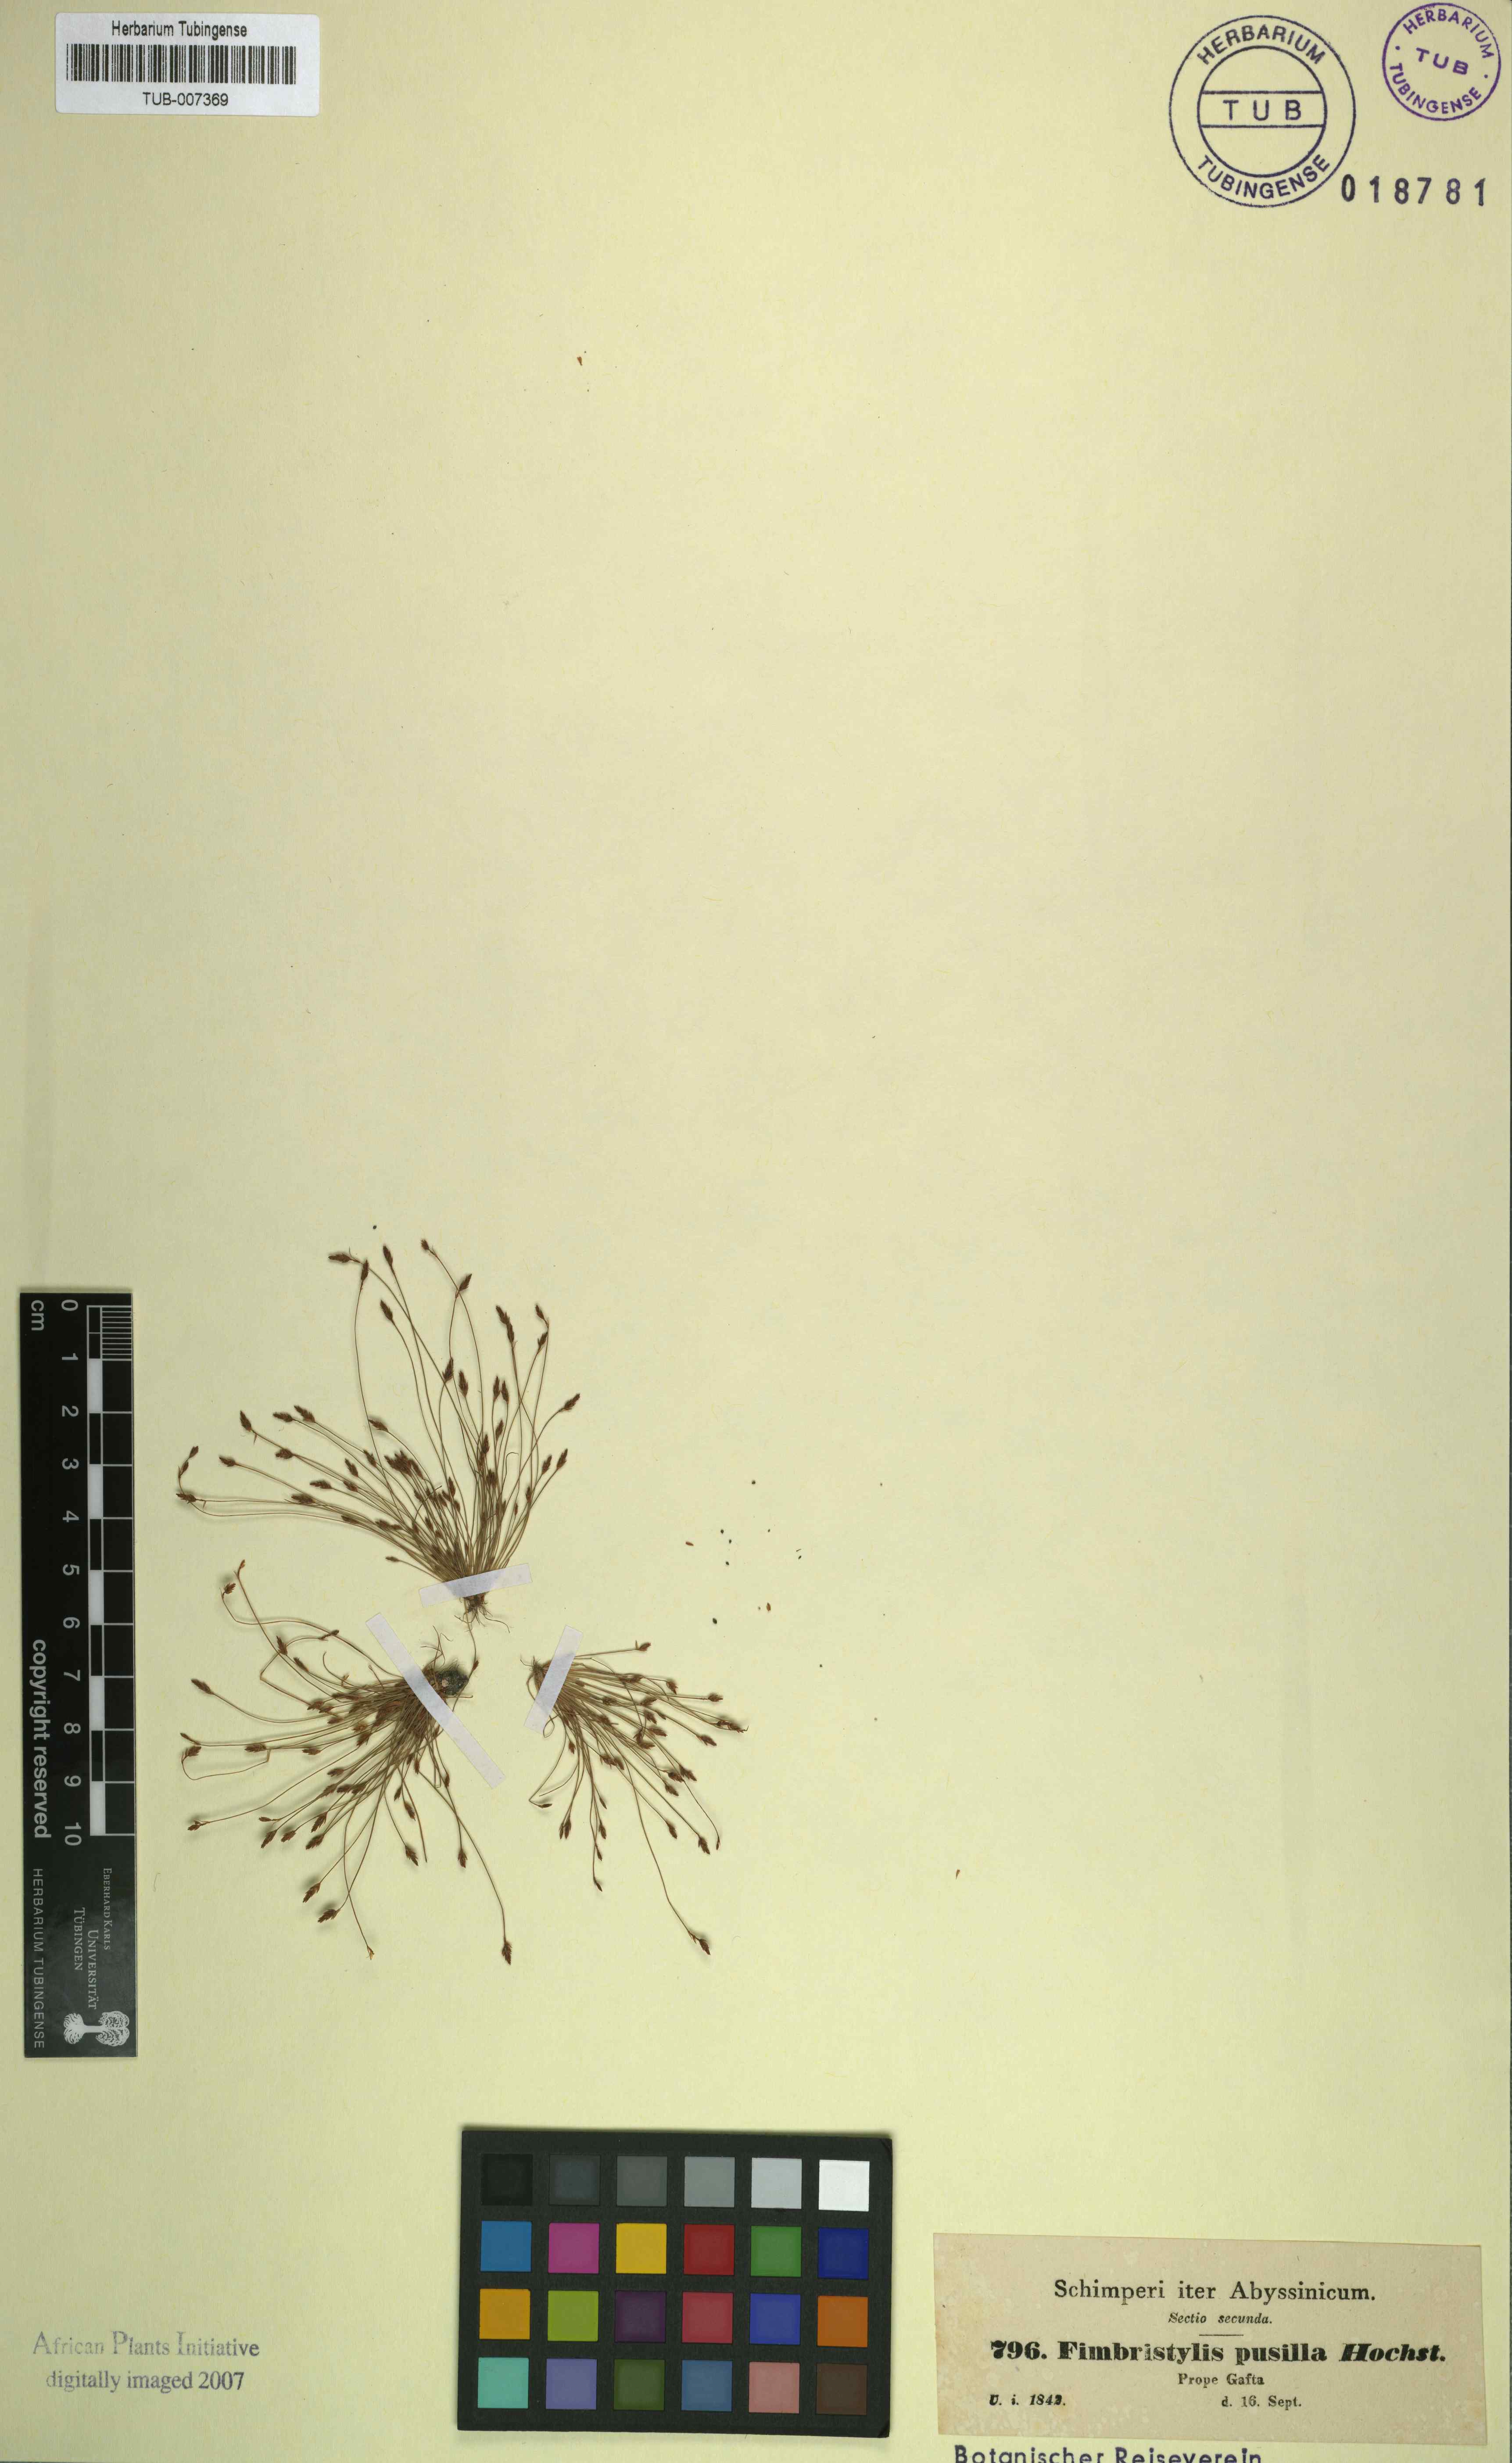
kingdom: Plantae
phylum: Tracheophyta
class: Liliopsida
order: Poales
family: Cyperaceae
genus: Bulbostylis
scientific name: Bulbostylis pusilla
